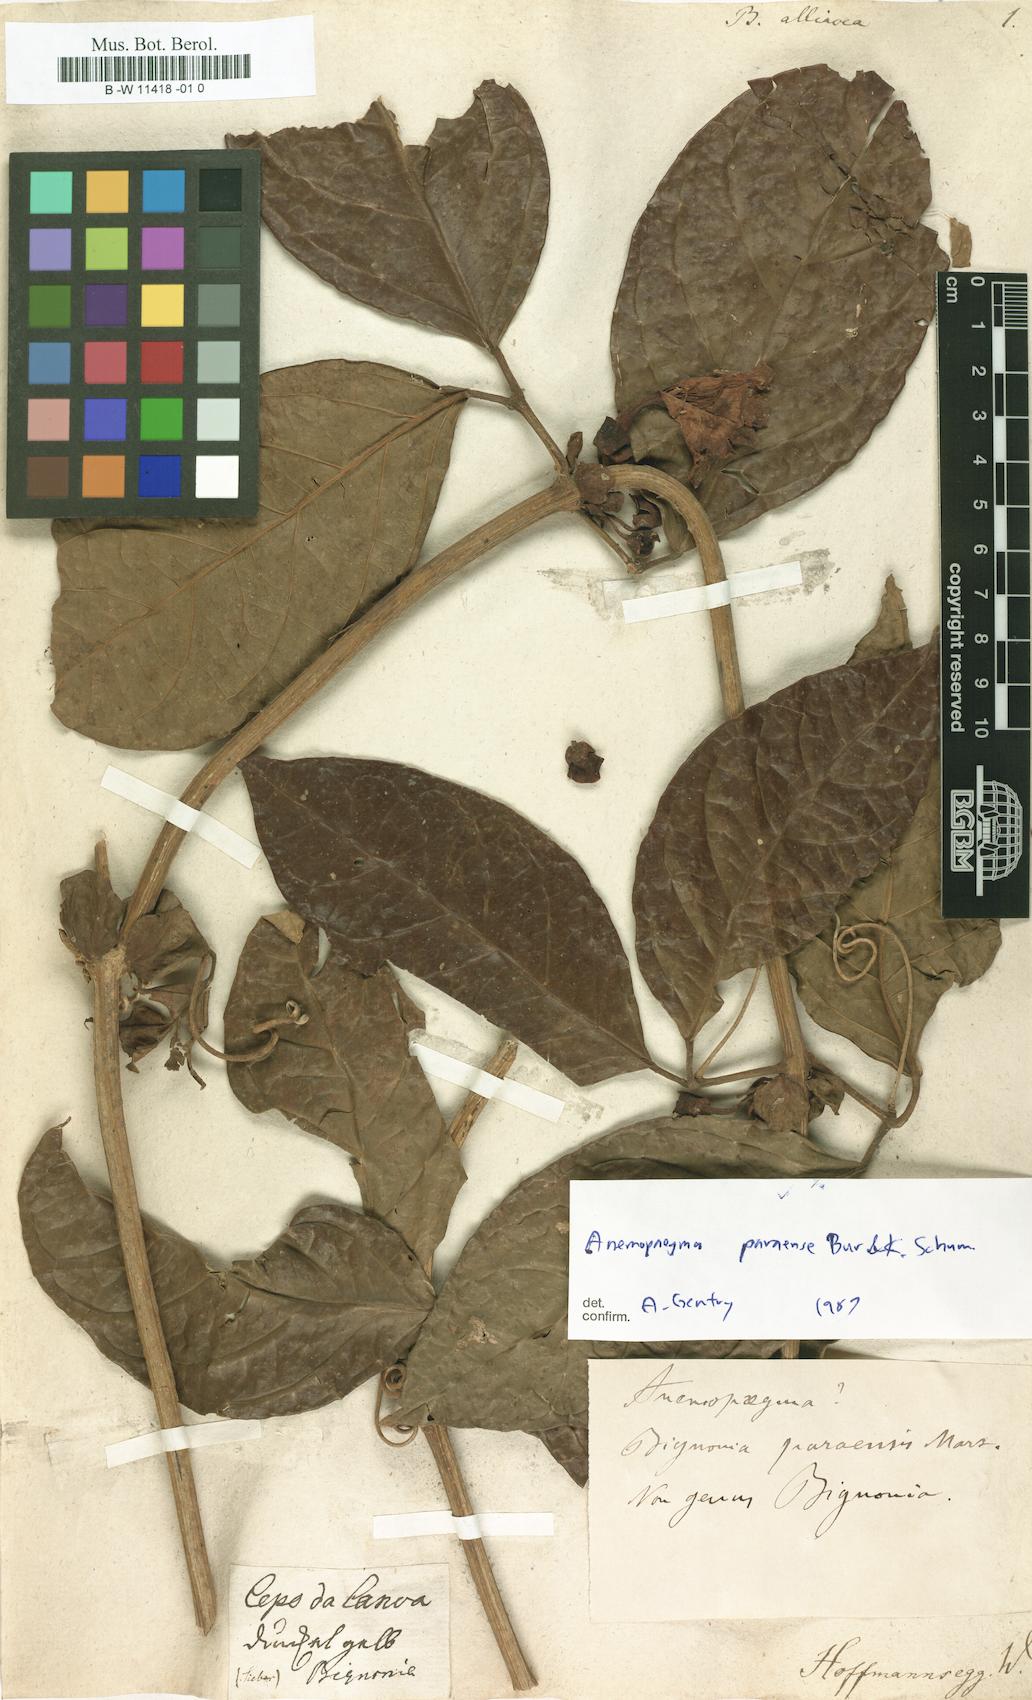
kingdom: Plantae
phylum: Tracheophyta
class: Magnoliopsida
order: Lamiales
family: Bignoniaceae
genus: Bignonia
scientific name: Bignonia alliacea
